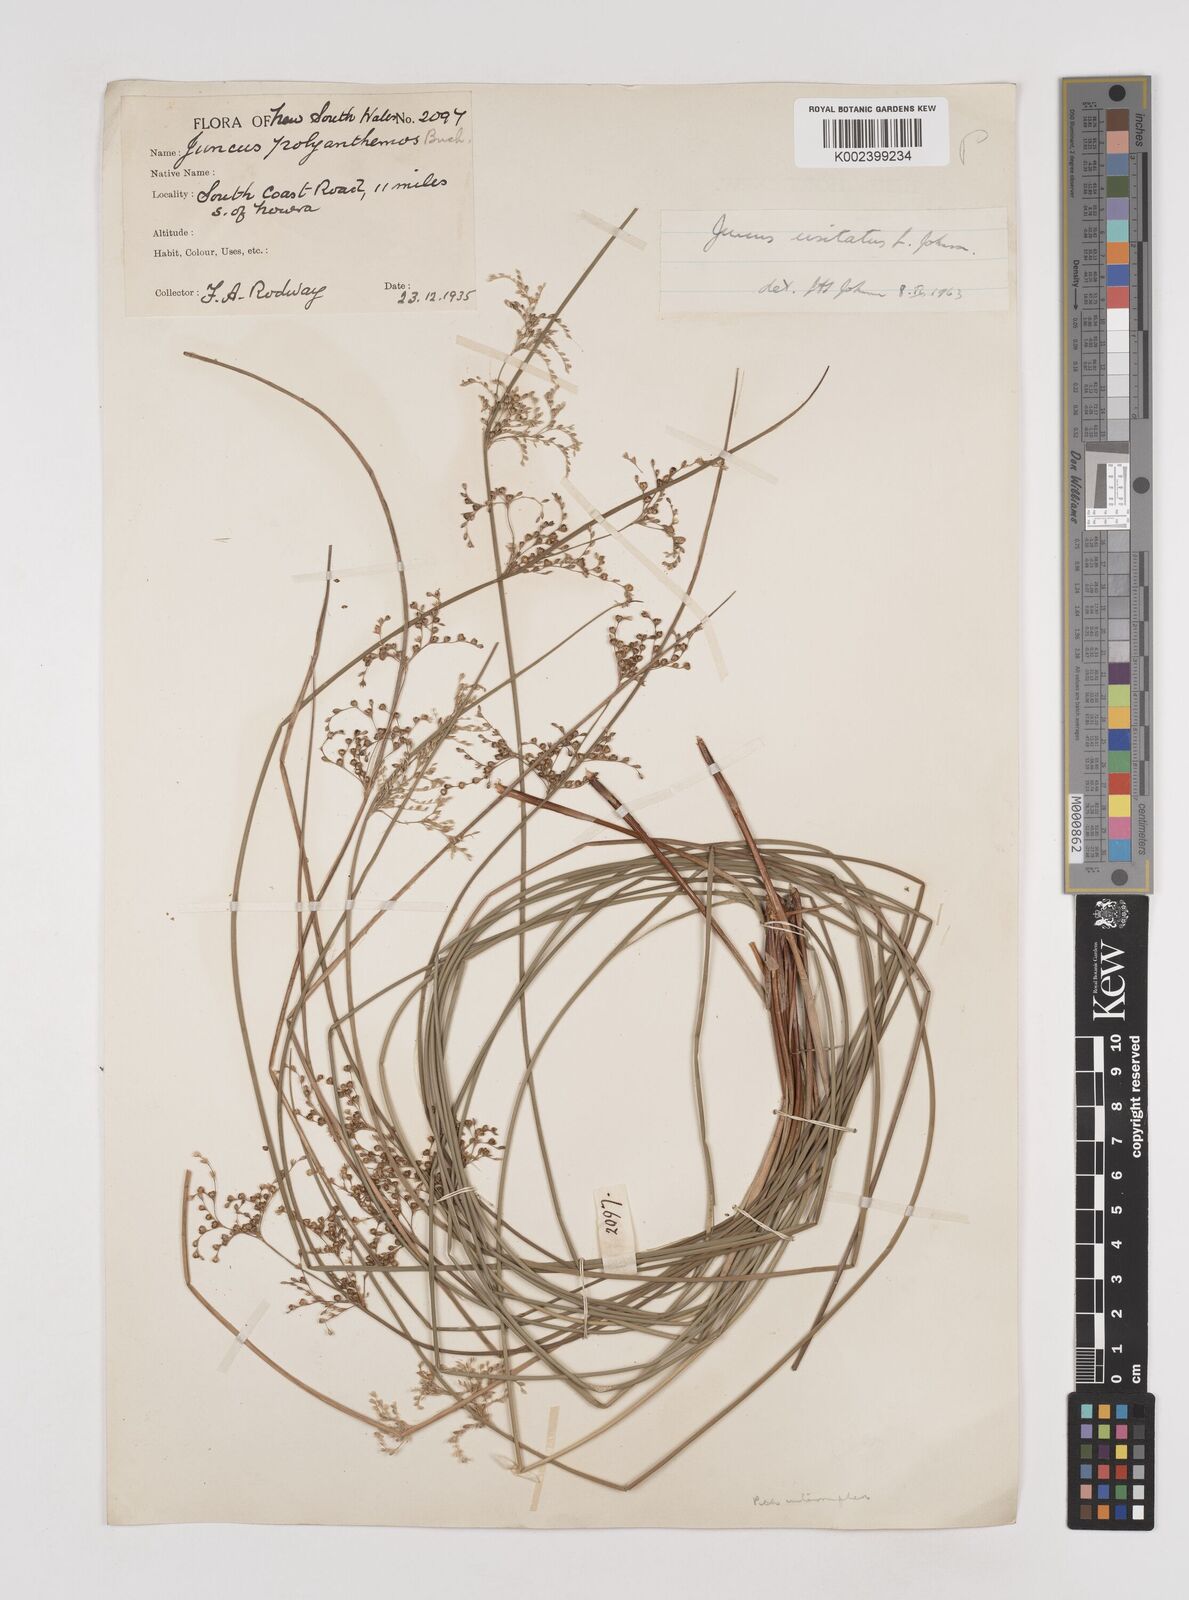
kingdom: Plantae
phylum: Tracheophyta
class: Liliopsida
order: Poales
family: Juncaceae
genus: Juncus
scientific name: Juncus usitatus
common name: Rush
